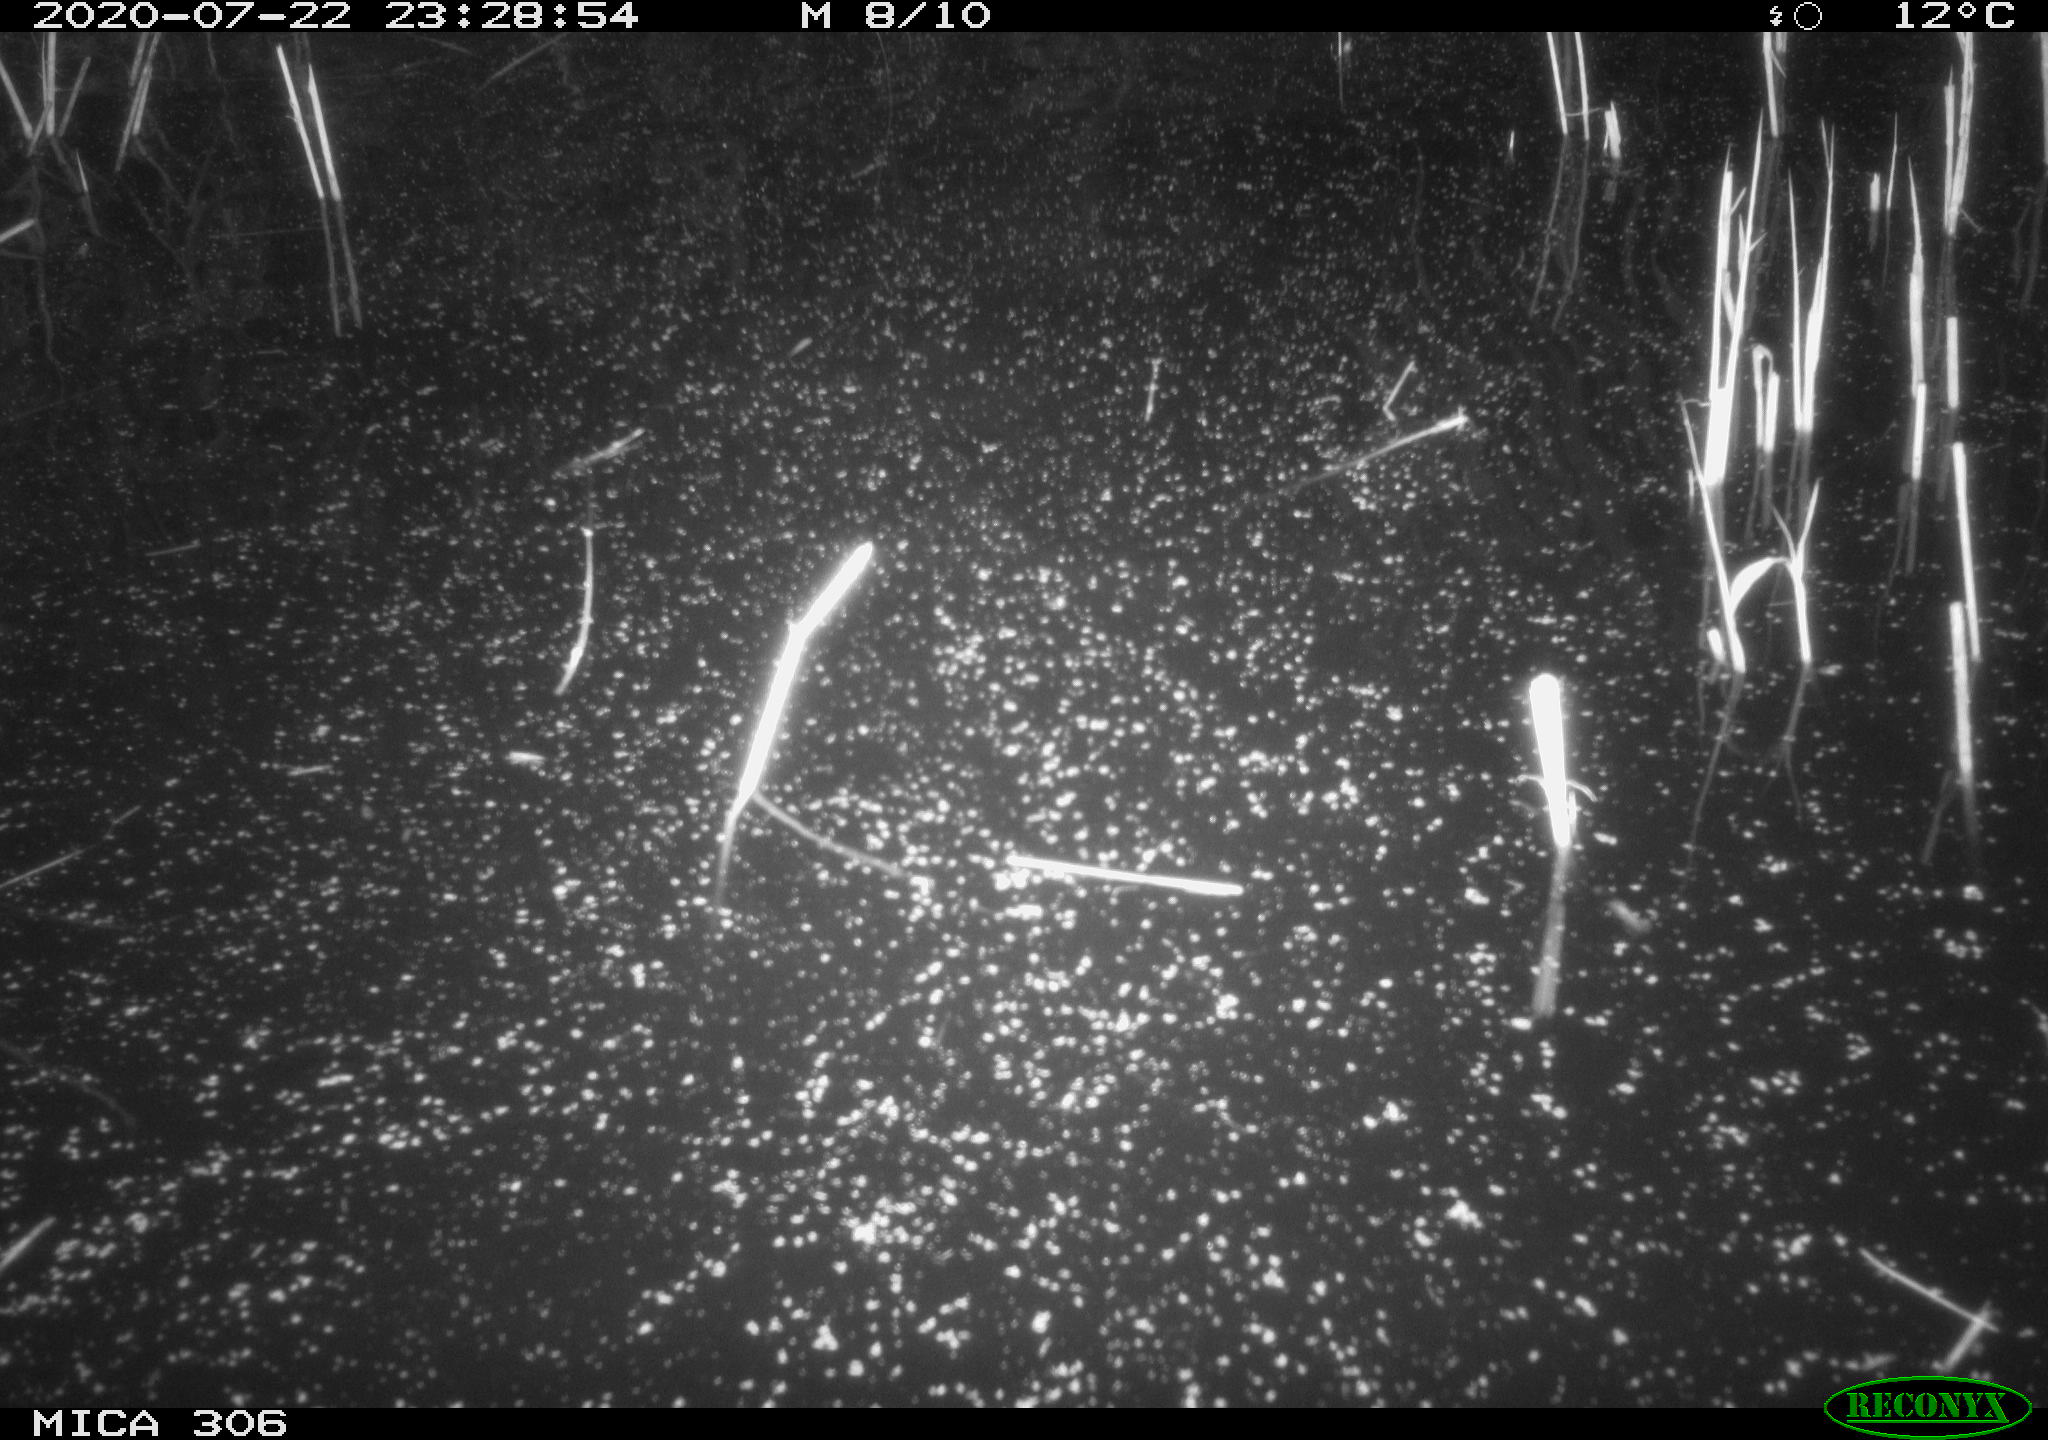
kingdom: Animalia
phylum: Chordata
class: Mammalia
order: Rodentia
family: Cricetidae
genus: Ondatra
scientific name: Ondatra zibethicus
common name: Muskrat
